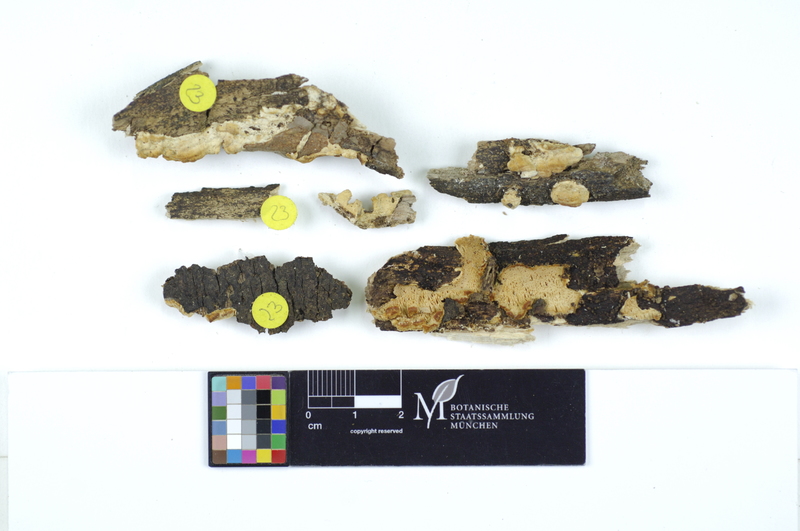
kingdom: Plantae
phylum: Tracheophyta
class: Magnoliopsida
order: Fagales
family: Betulaceae
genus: Carpinus
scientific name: Carpinus
